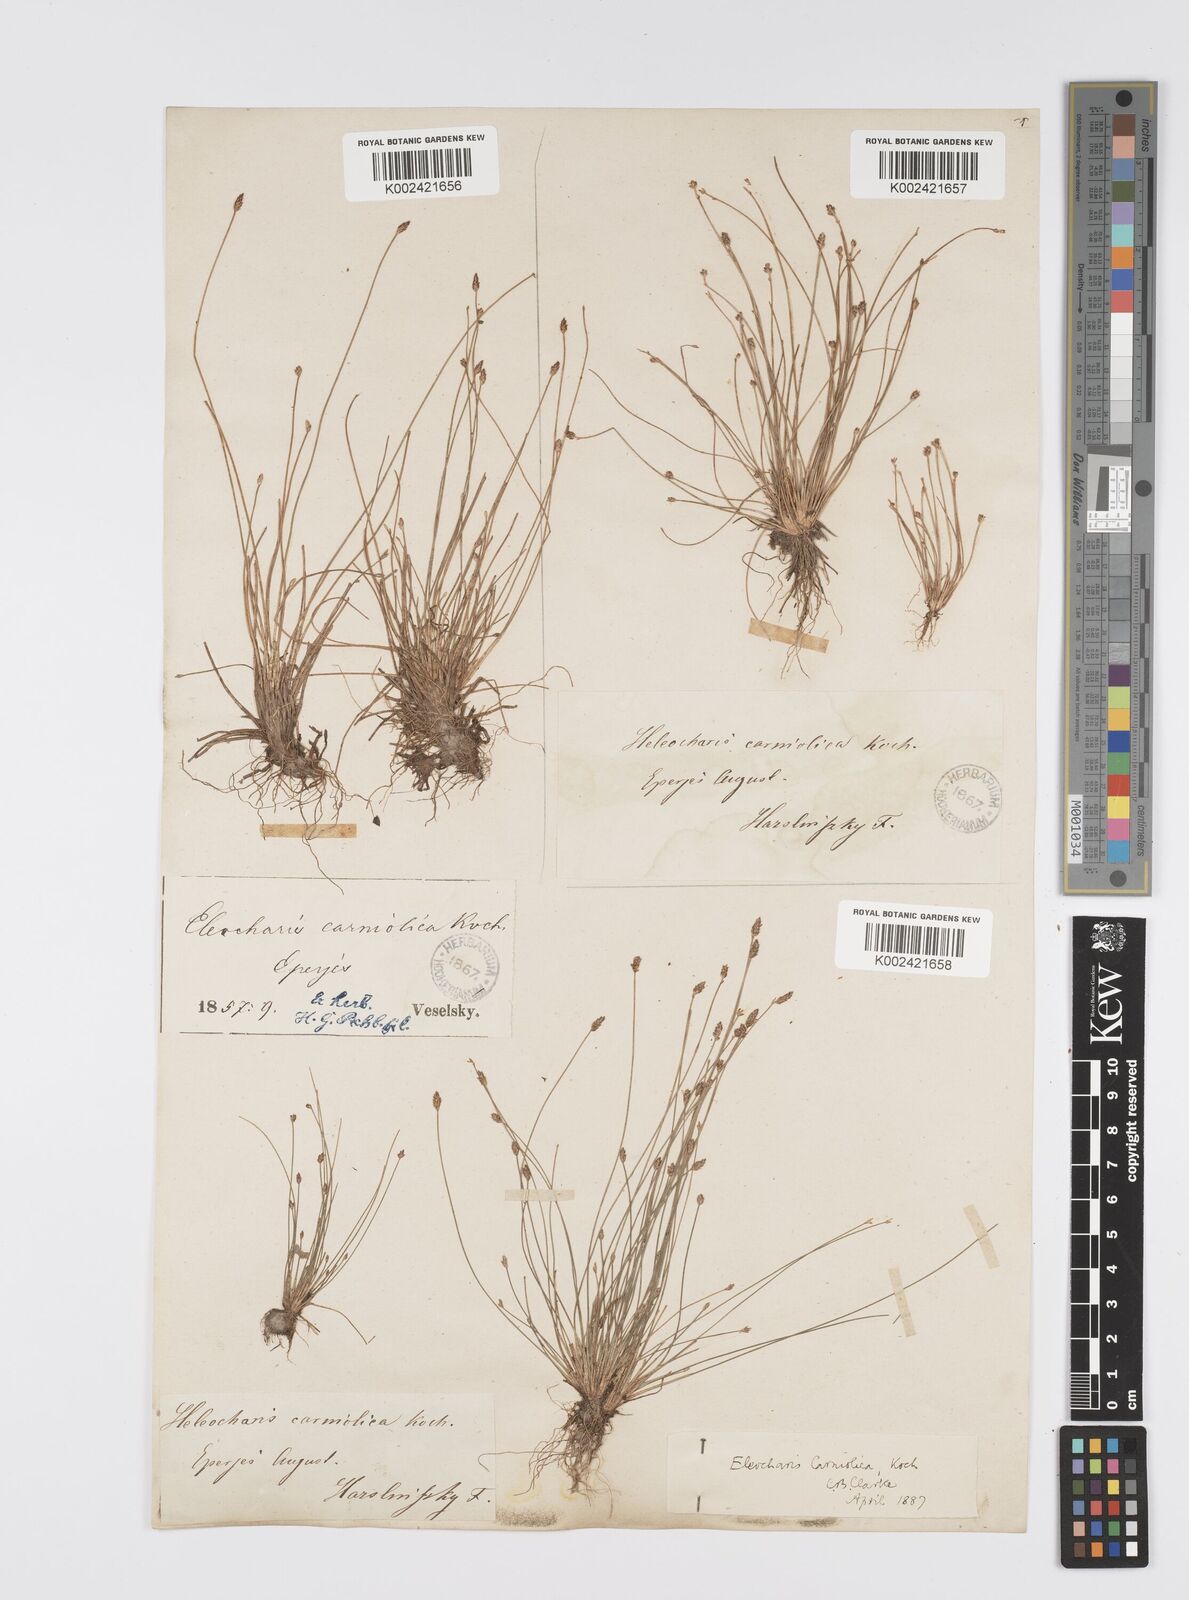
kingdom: Plantae
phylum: Tracheophyta
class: Liliopsida
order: Poales
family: Cyperaceae
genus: Eleocharis
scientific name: Eleocharis carniolica
